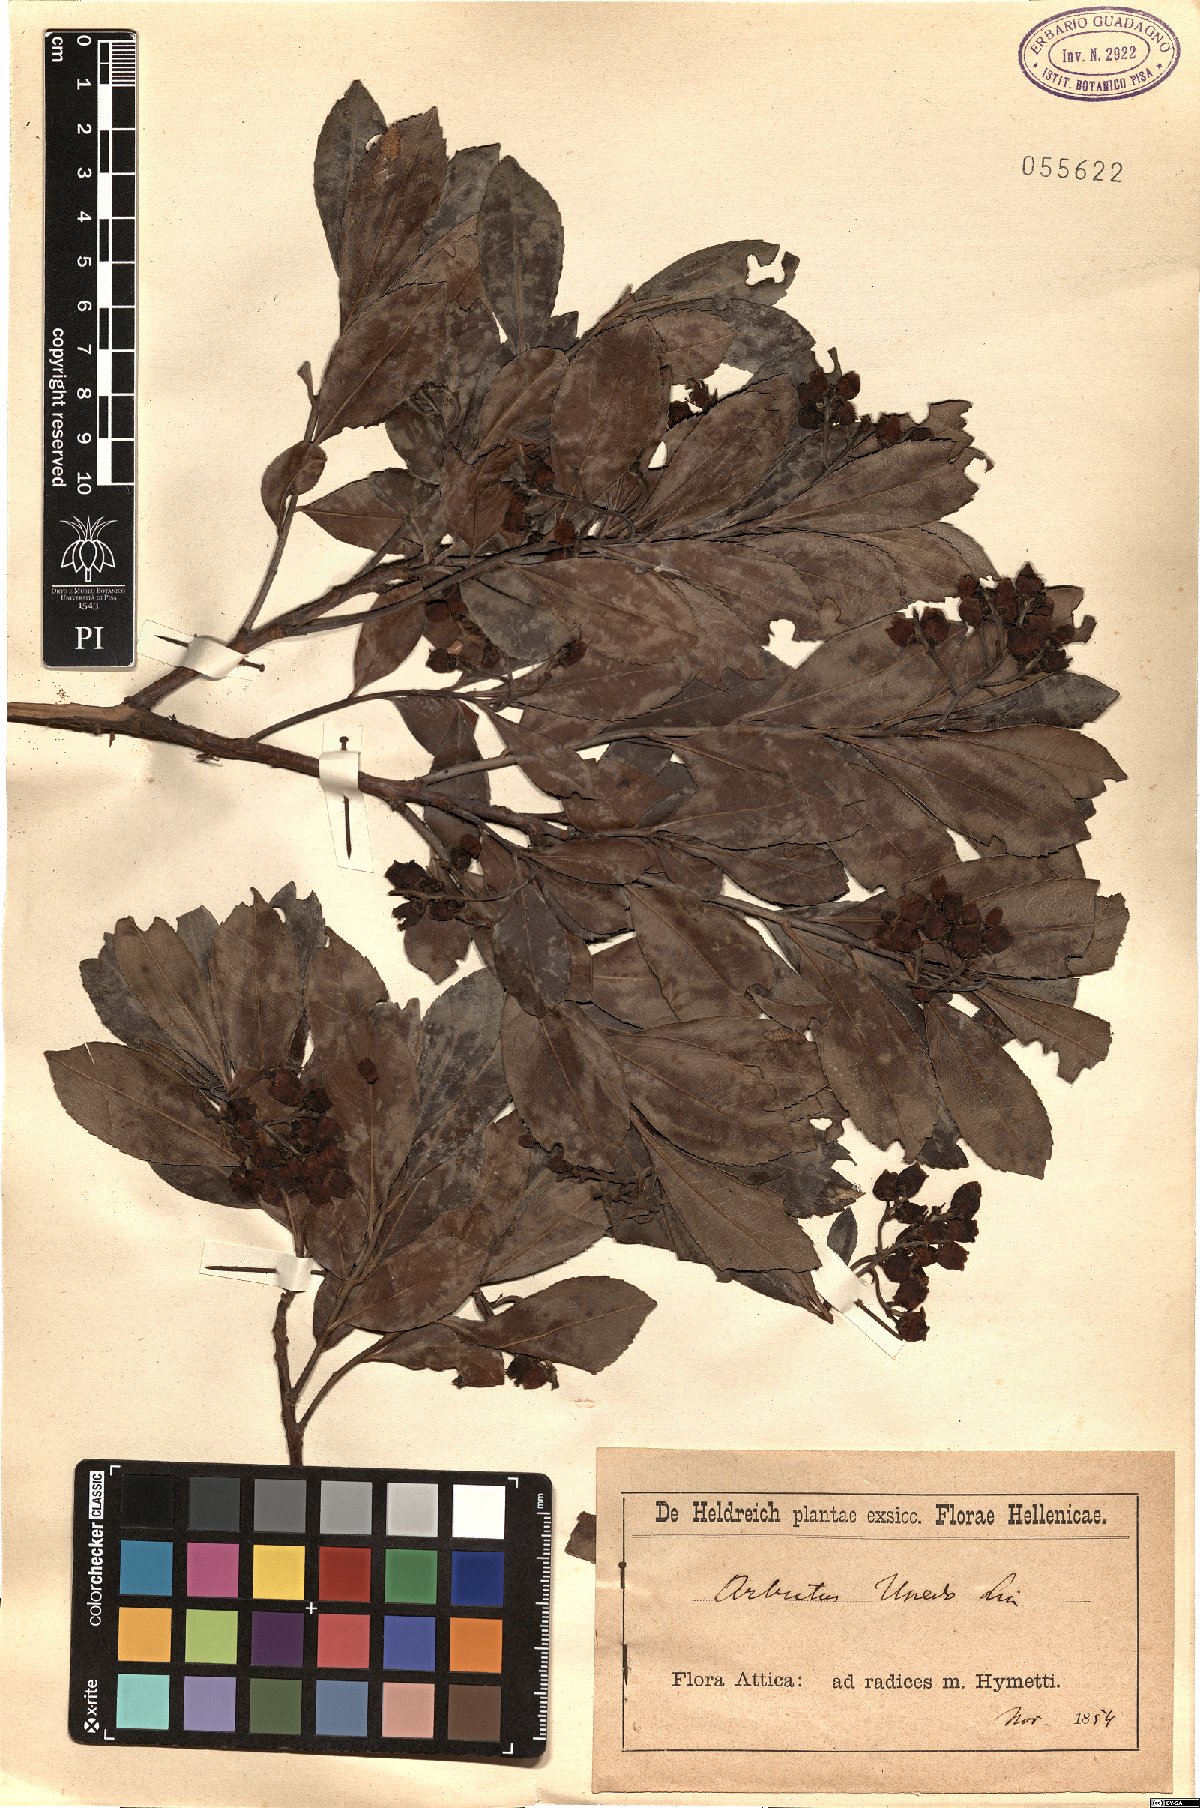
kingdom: Plantae
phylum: Tracheophyta
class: Magnoliopsida
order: Ericales
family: Ericaceae
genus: Arbutus
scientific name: Arbutus unedo
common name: Strawberry-tree
